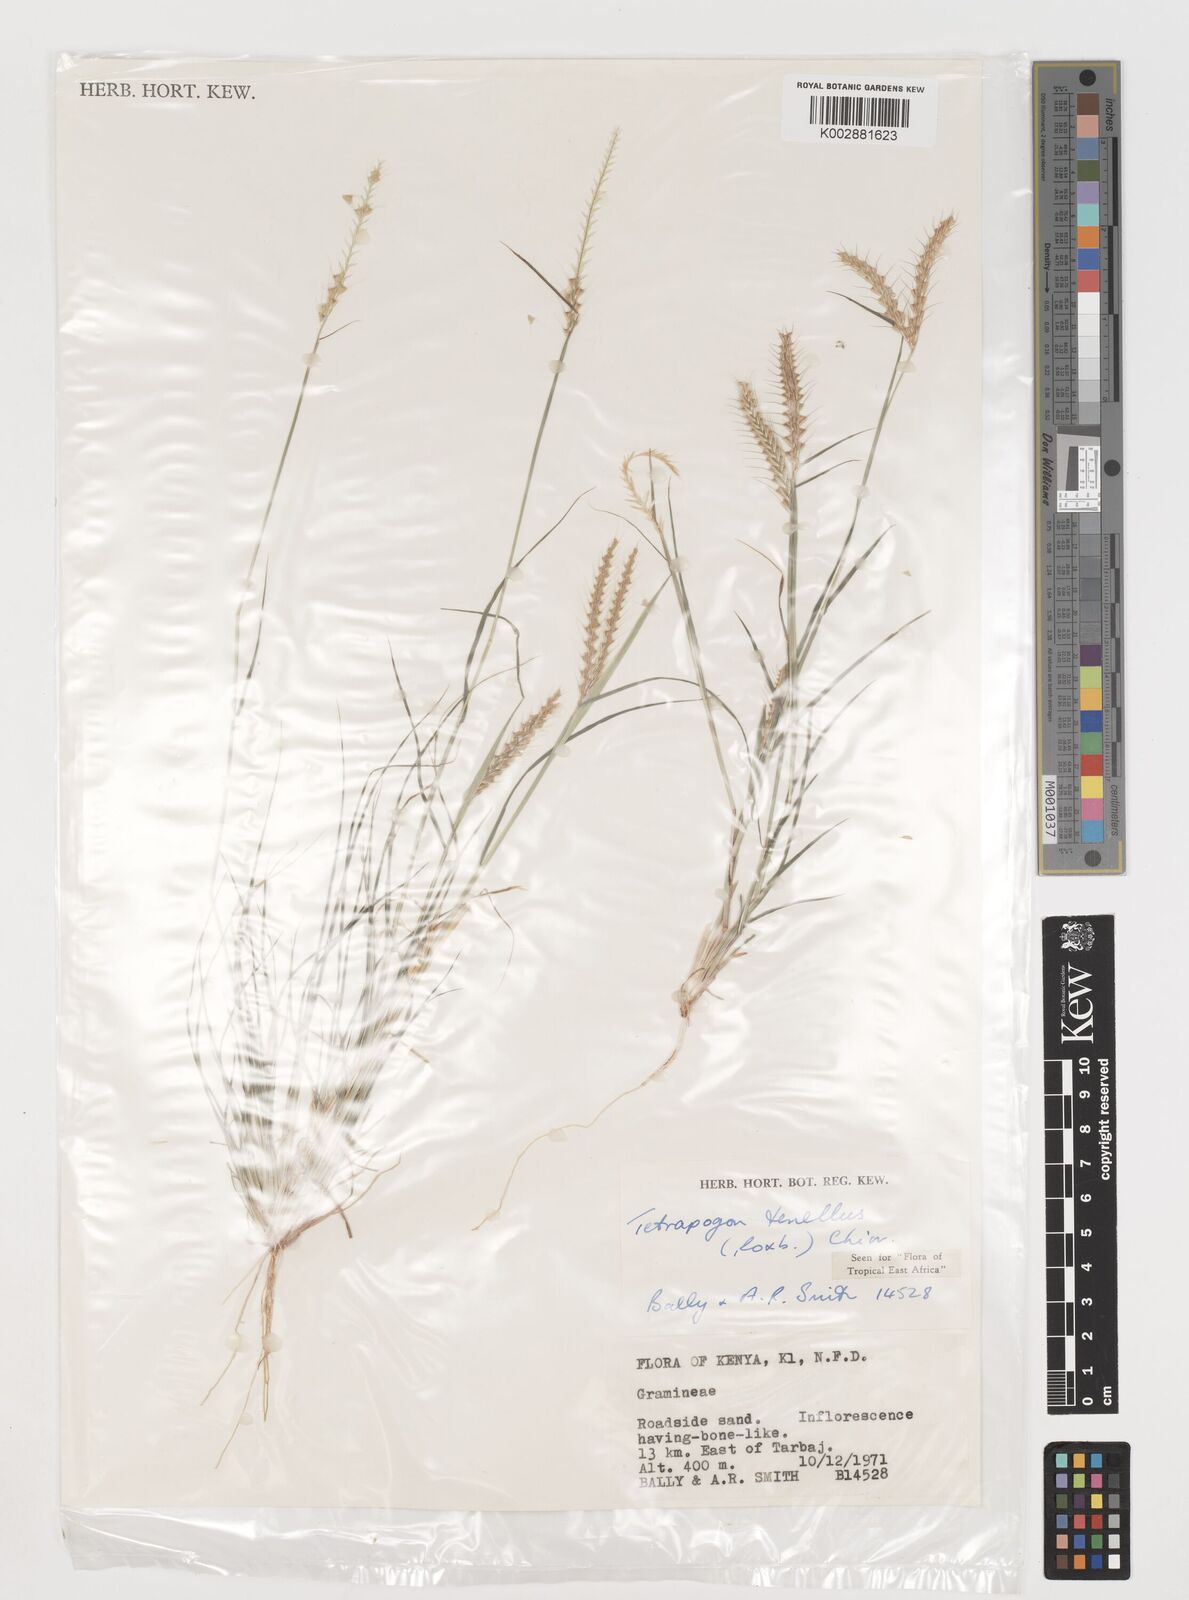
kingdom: Plantae
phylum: Tracheophyta
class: Liliopsida
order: Poales
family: Poaceae
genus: Tetrapogon
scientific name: Tetrapogon tenellus
